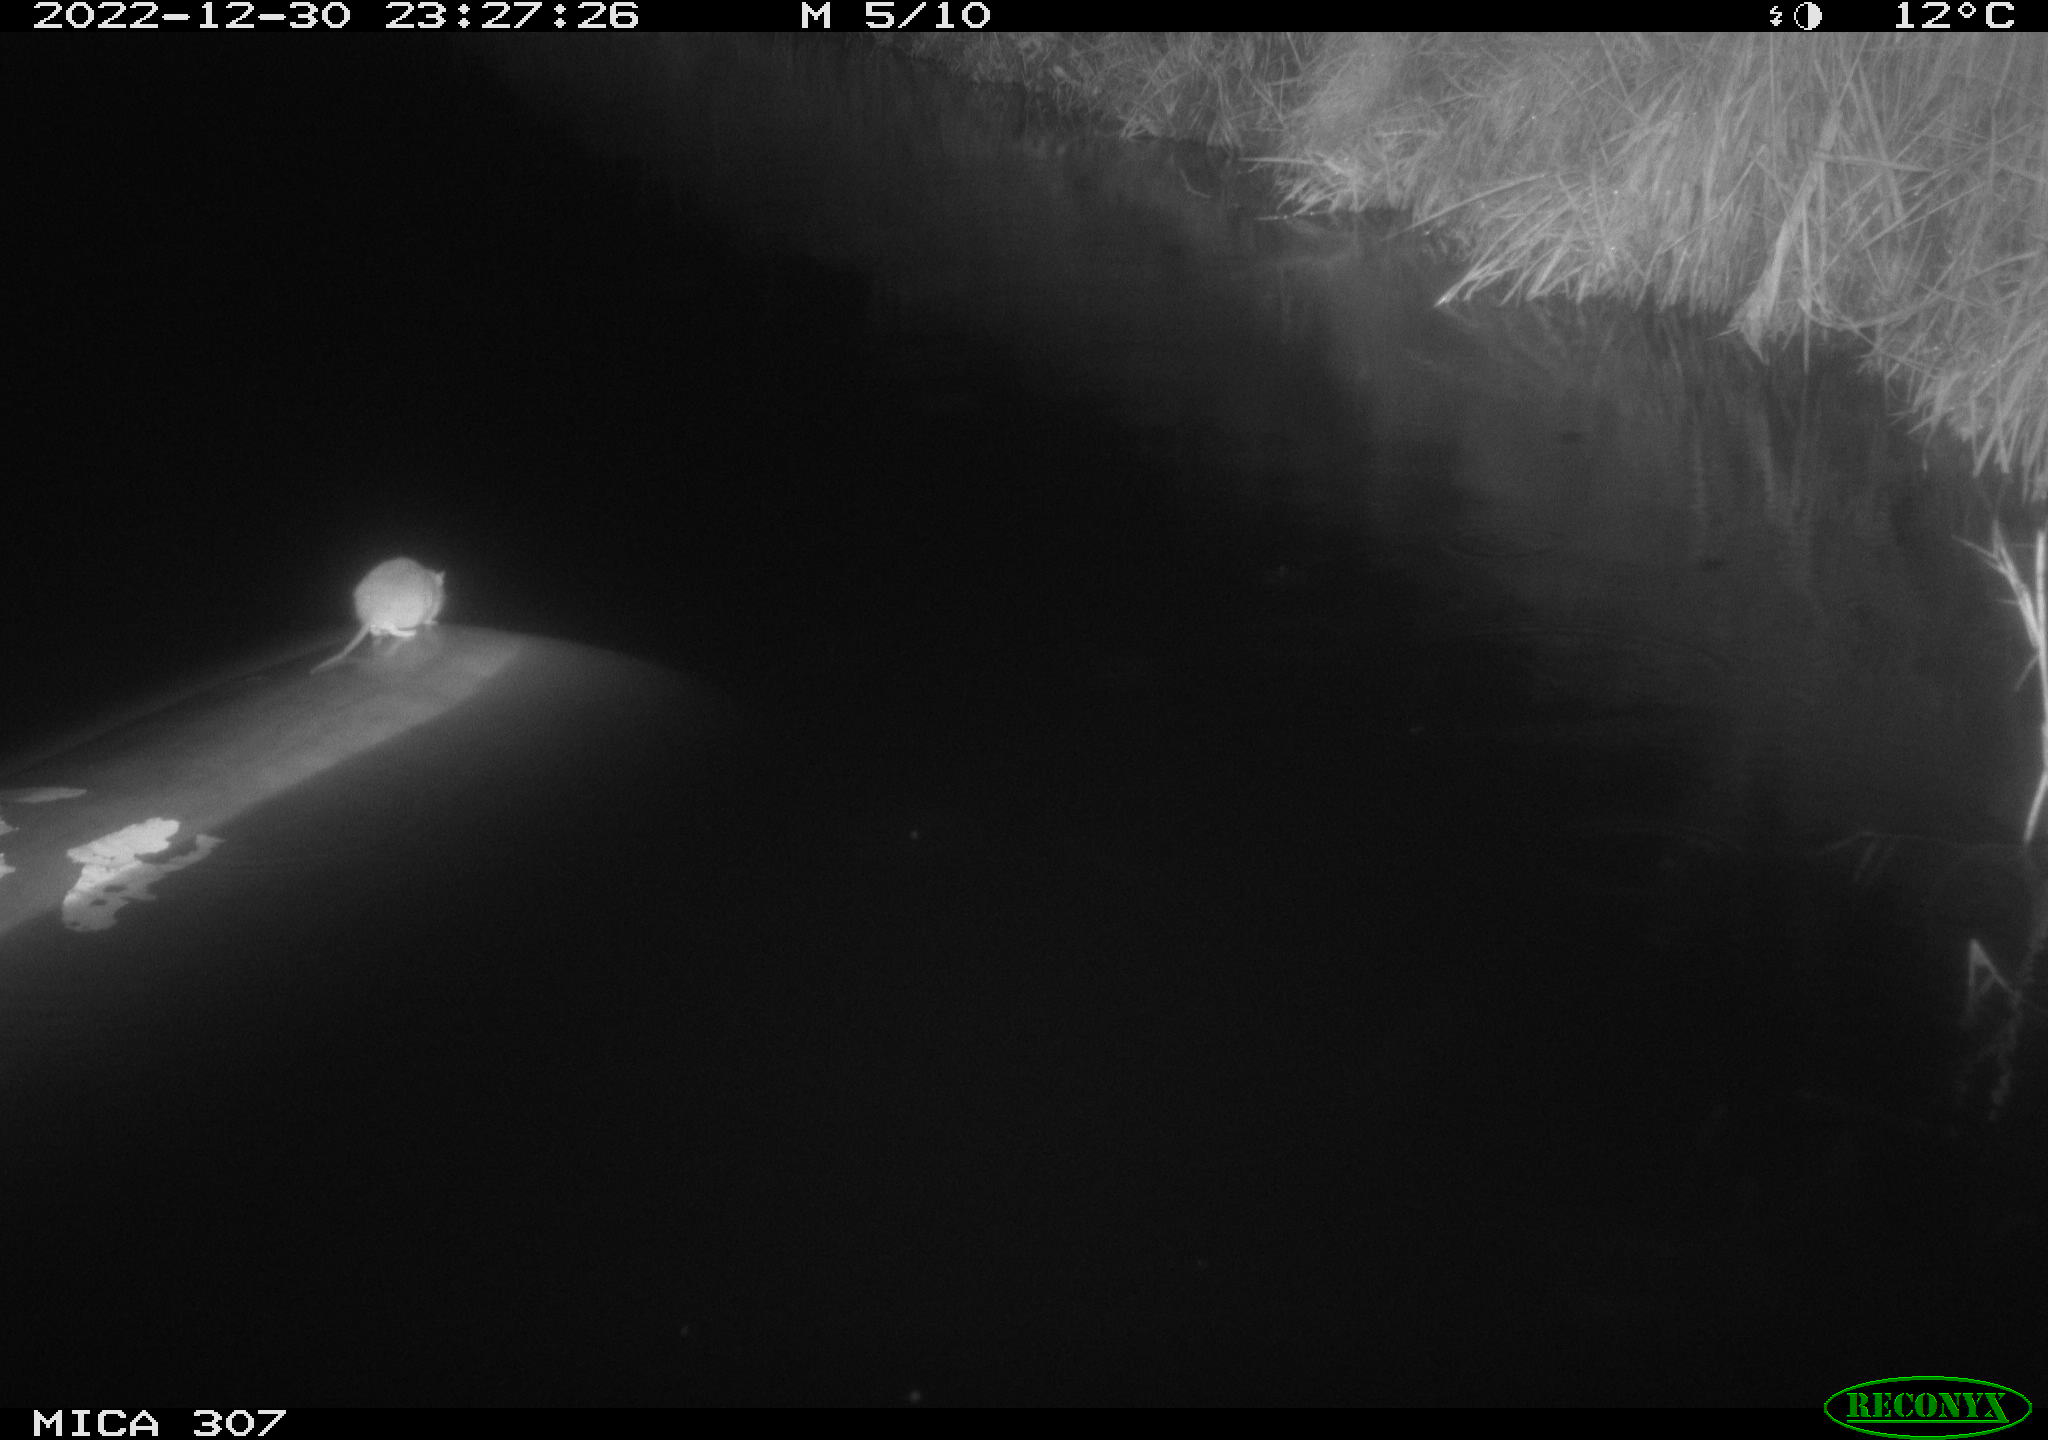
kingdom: Animalia
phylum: Chordata
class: Mammalia
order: Rodentia
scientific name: Rodentia
